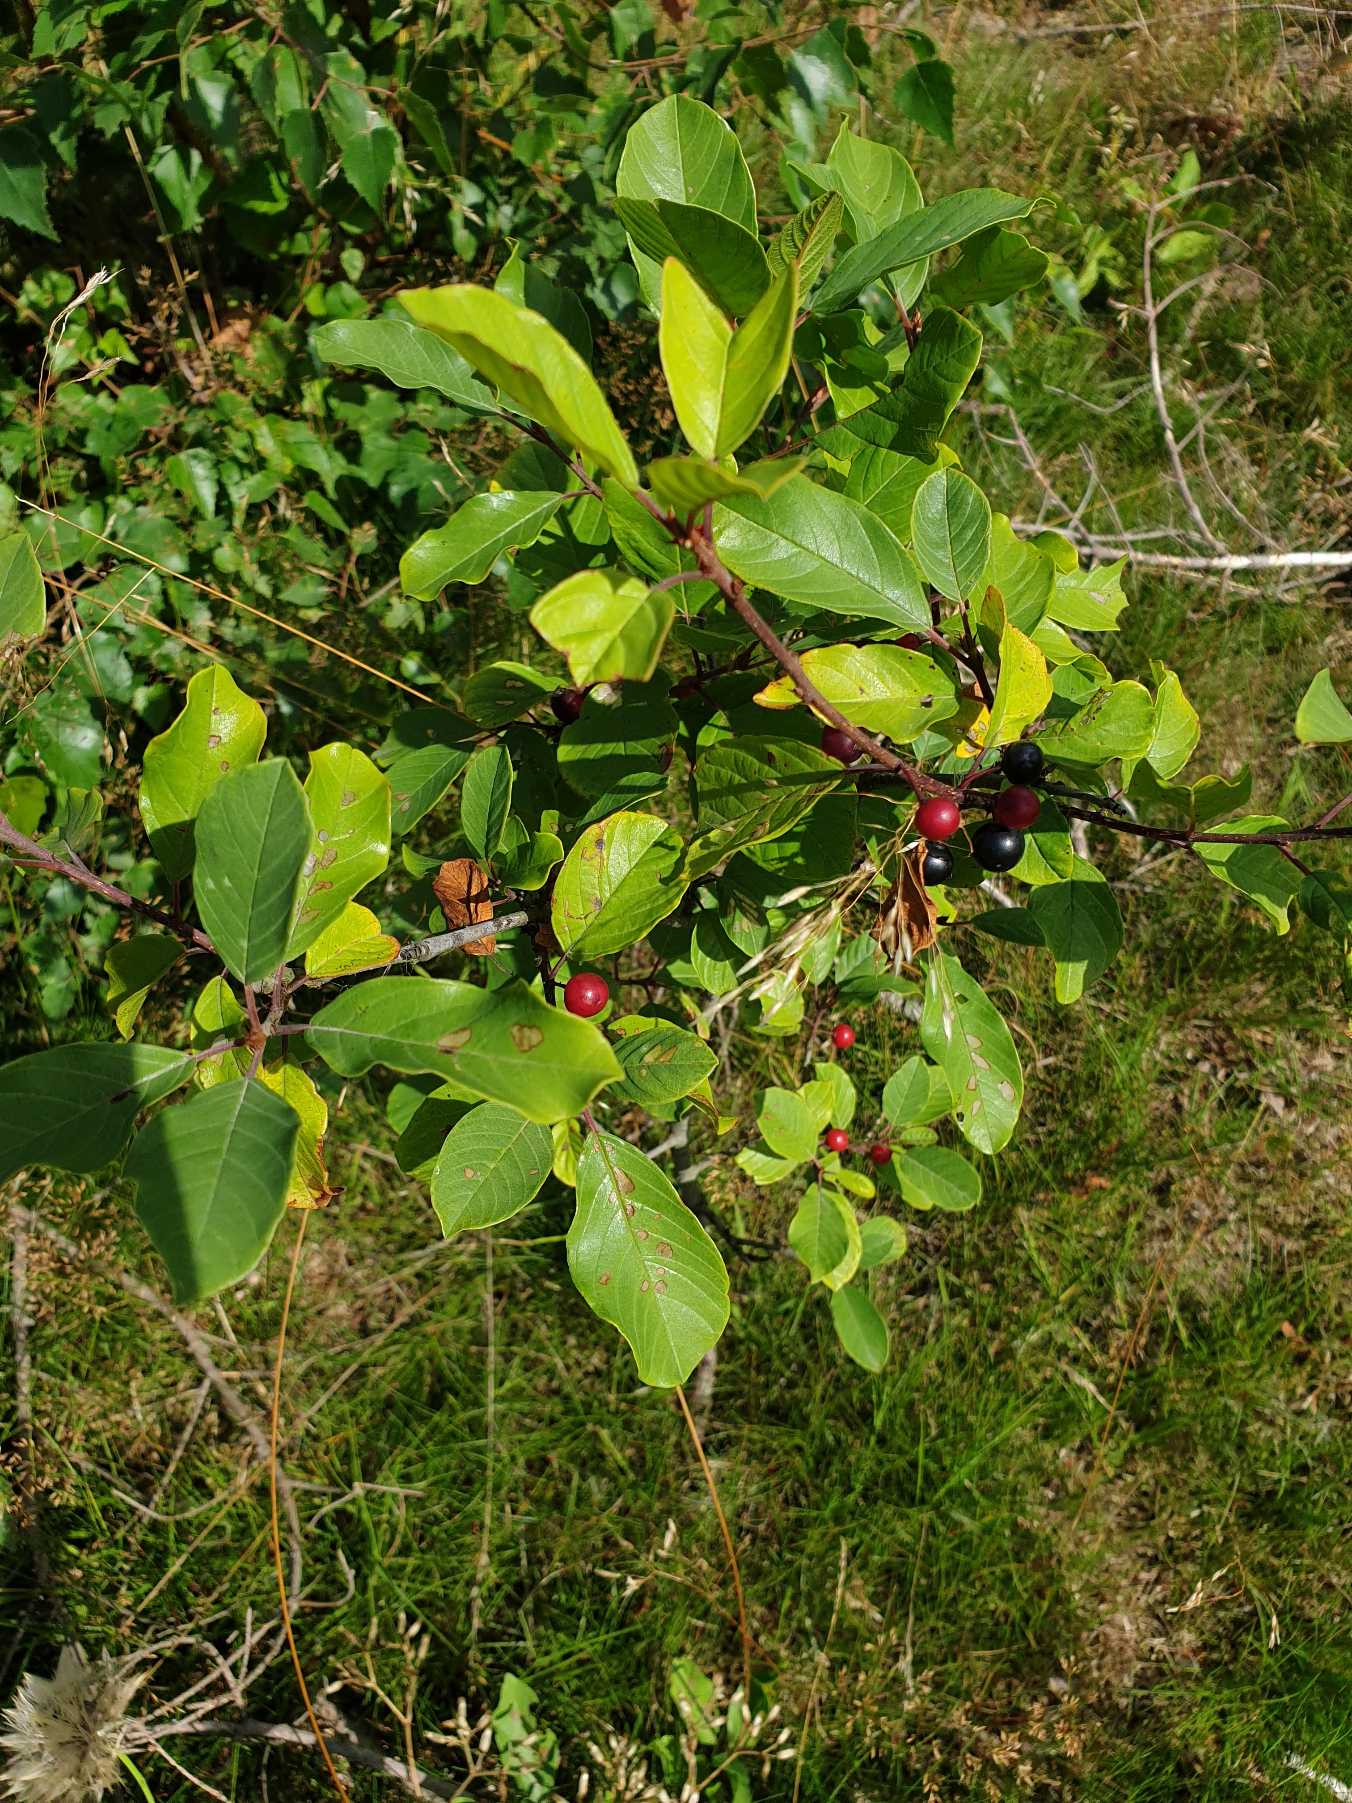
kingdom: Plantae
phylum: Tracheophyta
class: Magnoliopsida
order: Rosales
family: Rhamnaceae
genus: Frangula
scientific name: Frangula alnus
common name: Tørst
